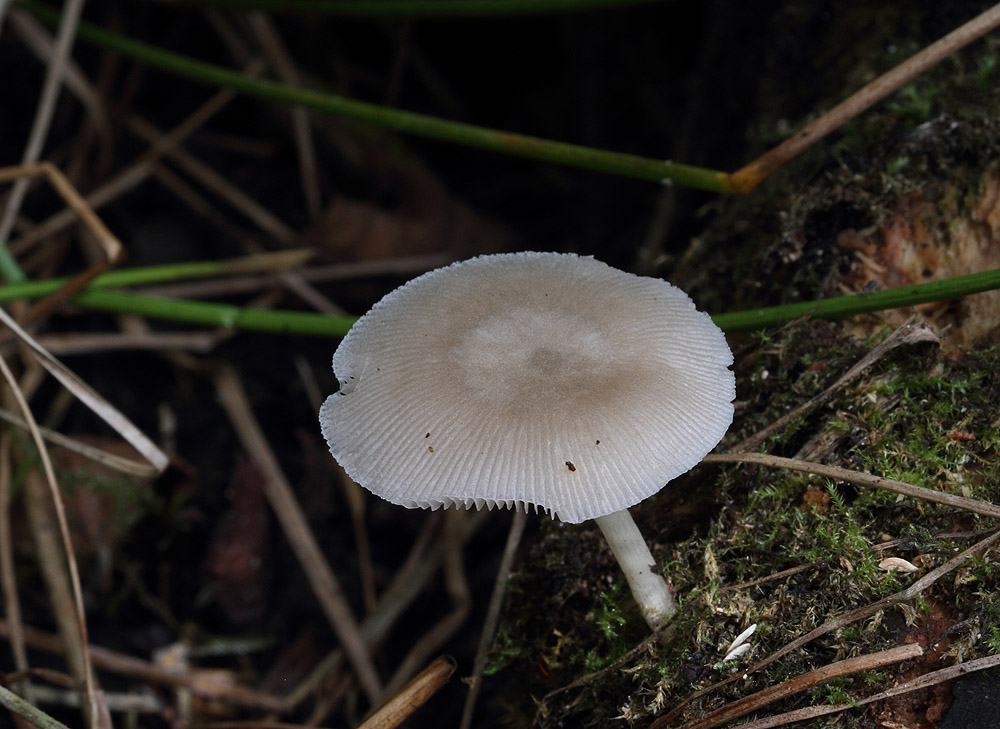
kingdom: Fungi
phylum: Basidiomycota
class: Agaricomycetes
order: Agaricales
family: Pluteaceae
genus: Pluteus
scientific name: Pluteus longistriatus
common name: hjul-skærmhat
